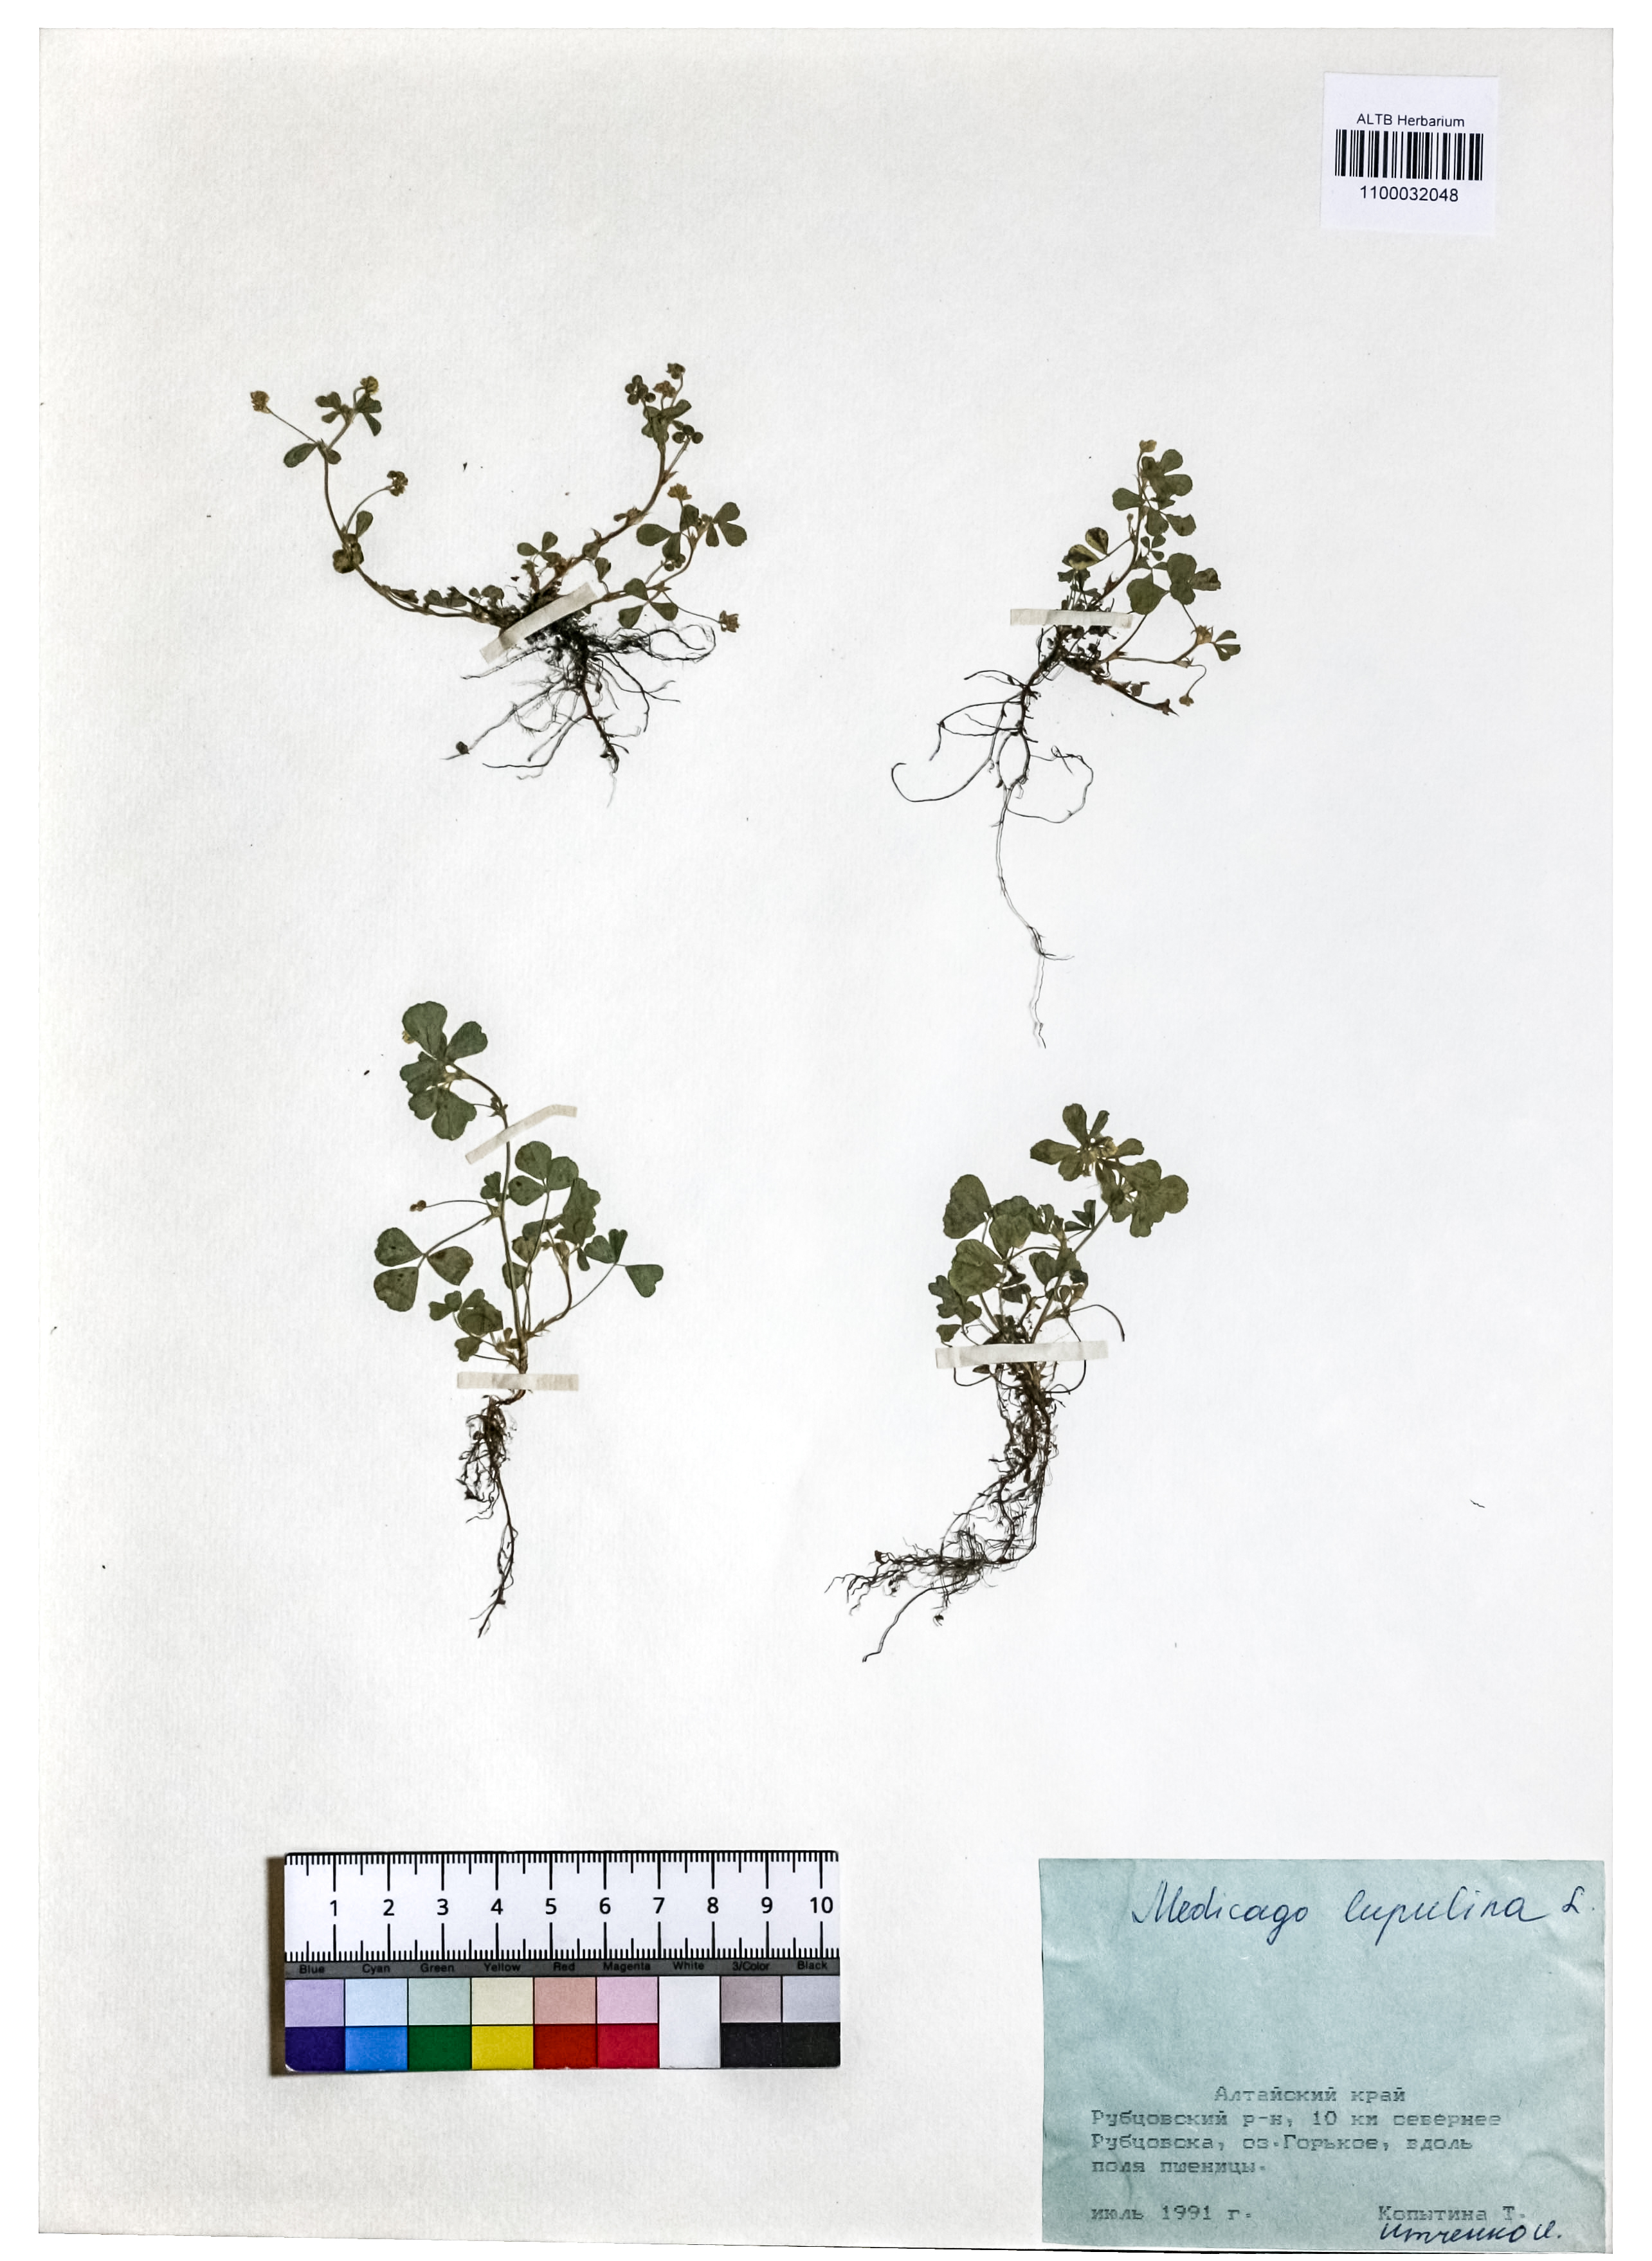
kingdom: Plantae
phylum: Tracheophyta
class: Magnoliopsida
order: Fabales
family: Fabaceae
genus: Medicago
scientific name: Medicago lupulina
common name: Black medick
